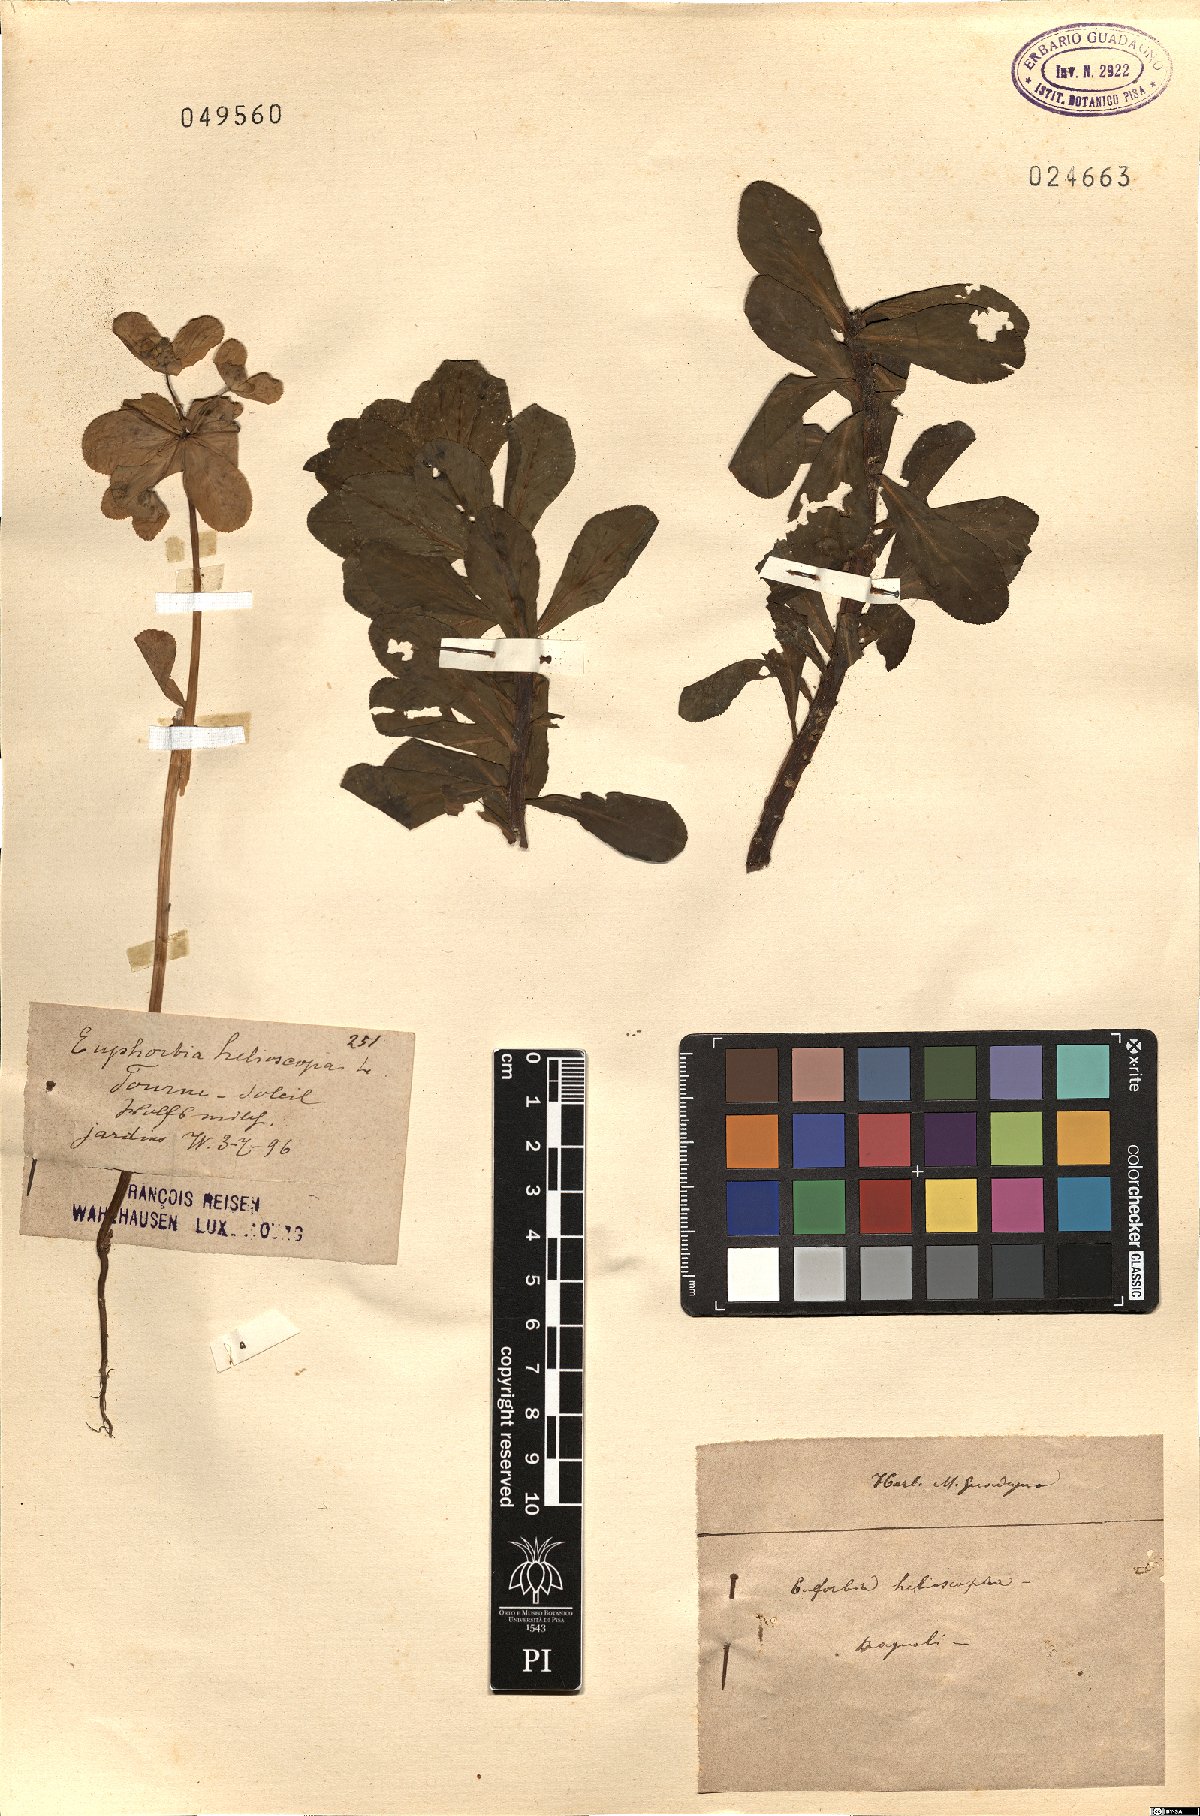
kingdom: Plantae
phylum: Tracheophyta
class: Magnoliopsida
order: Malpighiales
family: Euphorbiaceae
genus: Euphorbia
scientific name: Euphorbia helioscopia
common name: Sun spurge
